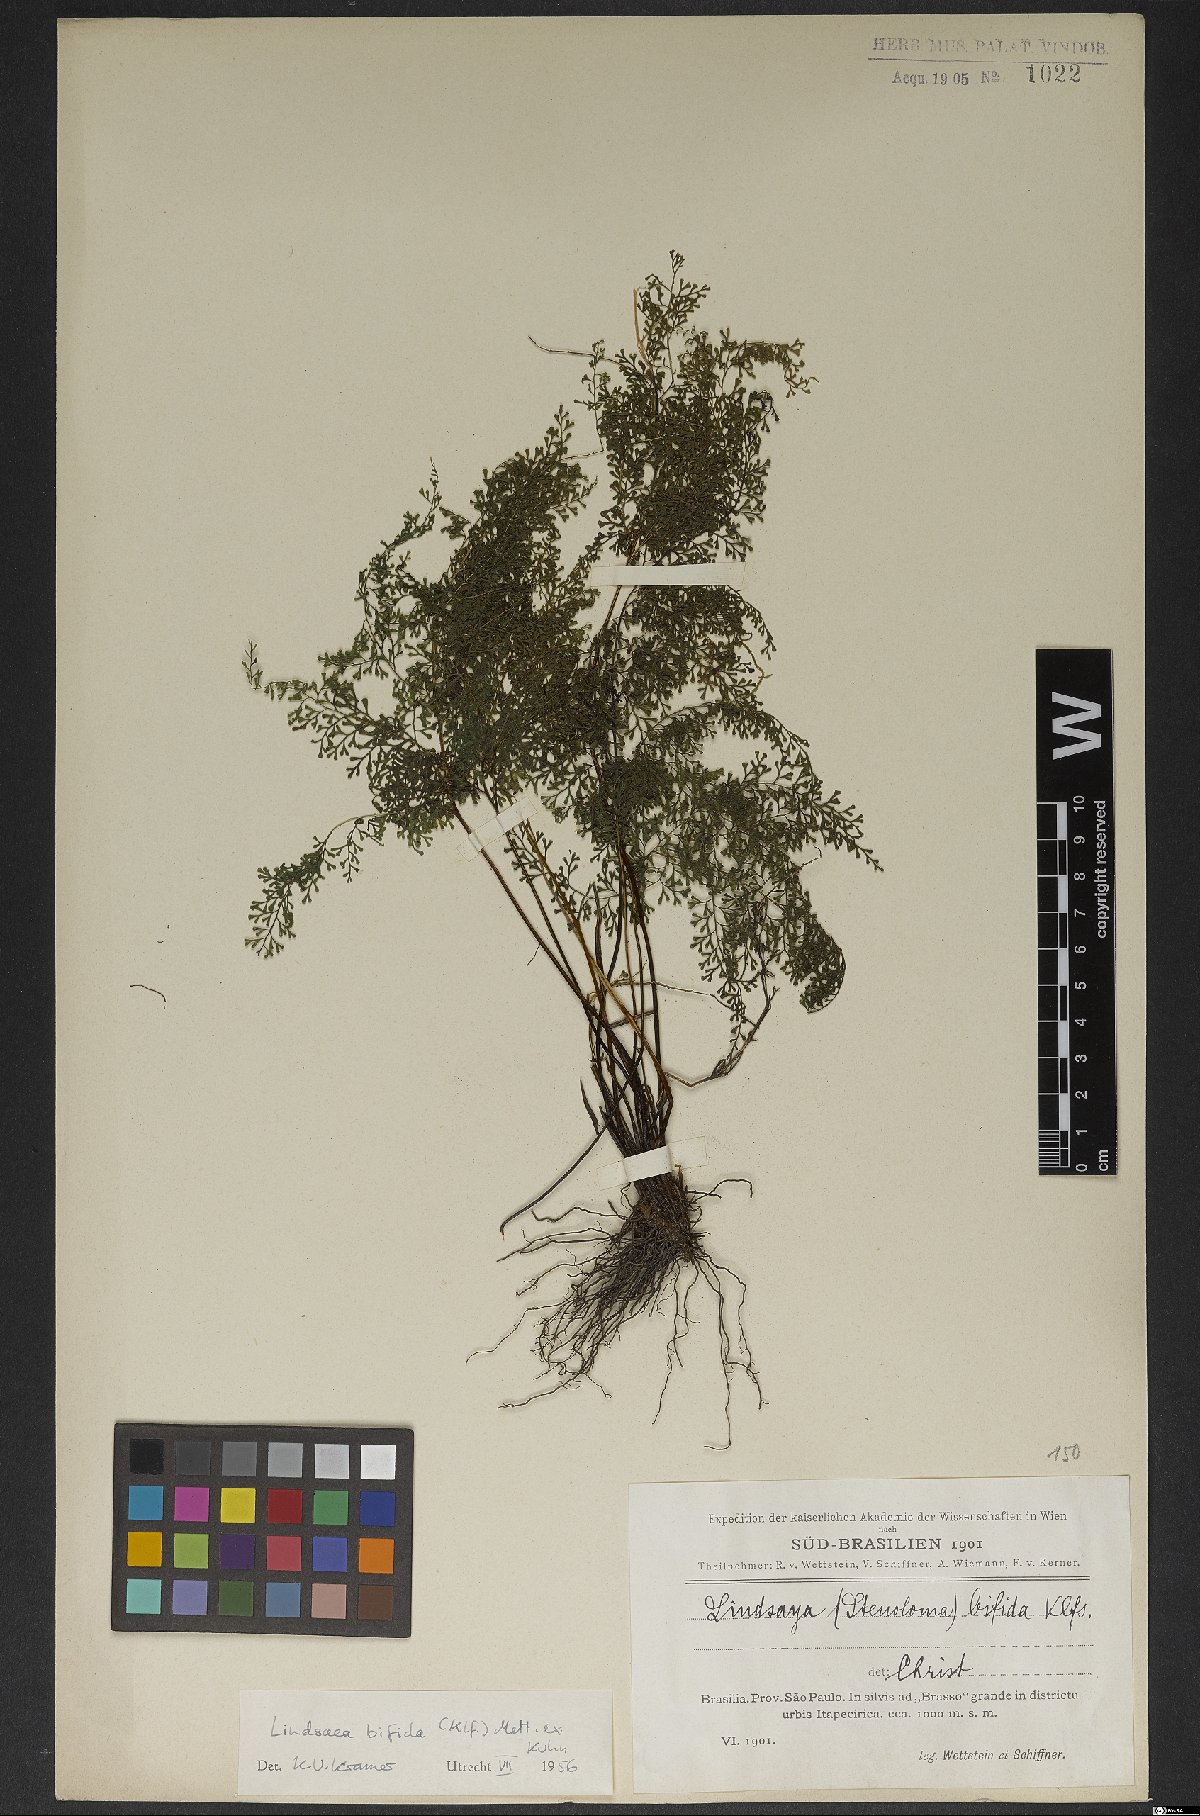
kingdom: Plantae
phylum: Tracheophyta
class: Polypodiopsida
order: Polypodiales
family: Lindsaeaceae
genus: Lindsaea
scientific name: Lindsaea bifida
